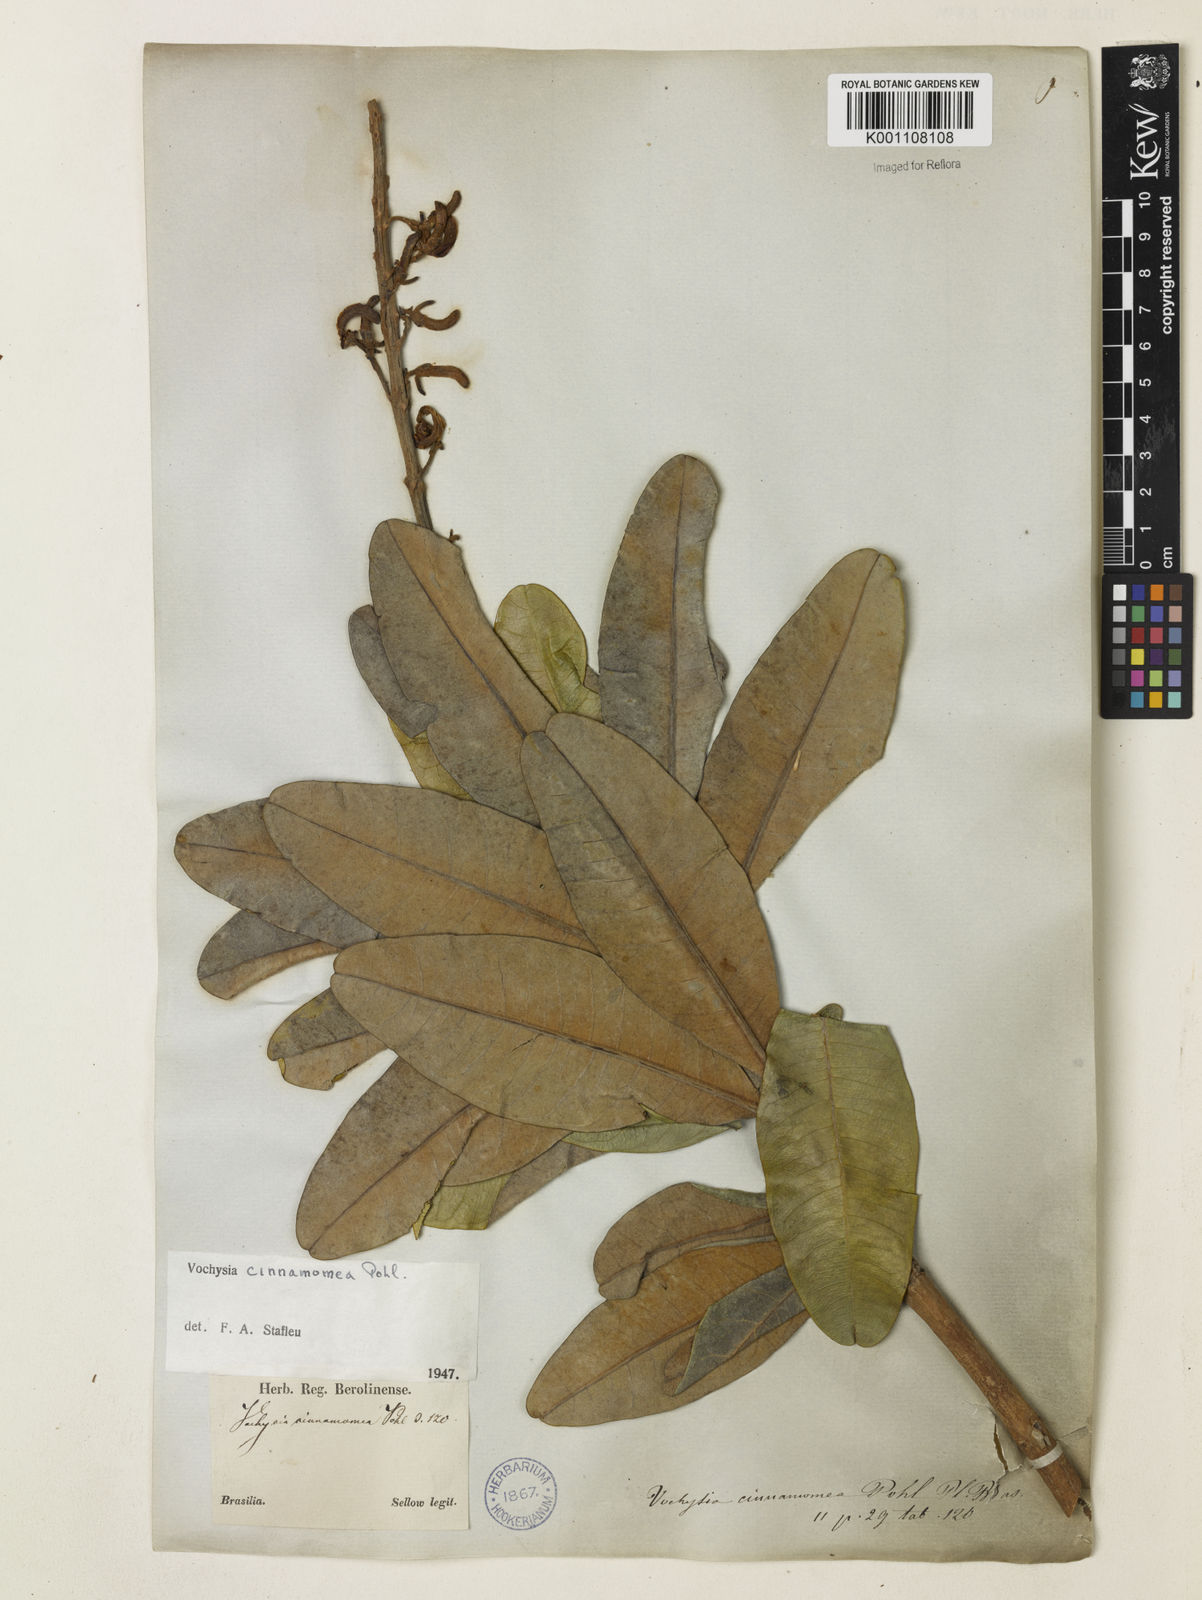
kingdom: Plantae
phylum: Tracheophyta
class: Magnoliopsida
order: Myrtales
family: Vochysiaceae
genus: Vochysia
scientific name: Vochysia cinnamomea
